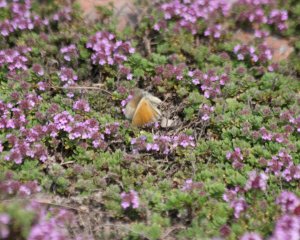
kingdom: Animalia
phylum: Arthropoda
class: Insecta
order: Lepidoptera
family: Nymphalidae
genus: Coenonympha
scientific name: Coenonympha tullia
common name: Large Heath
